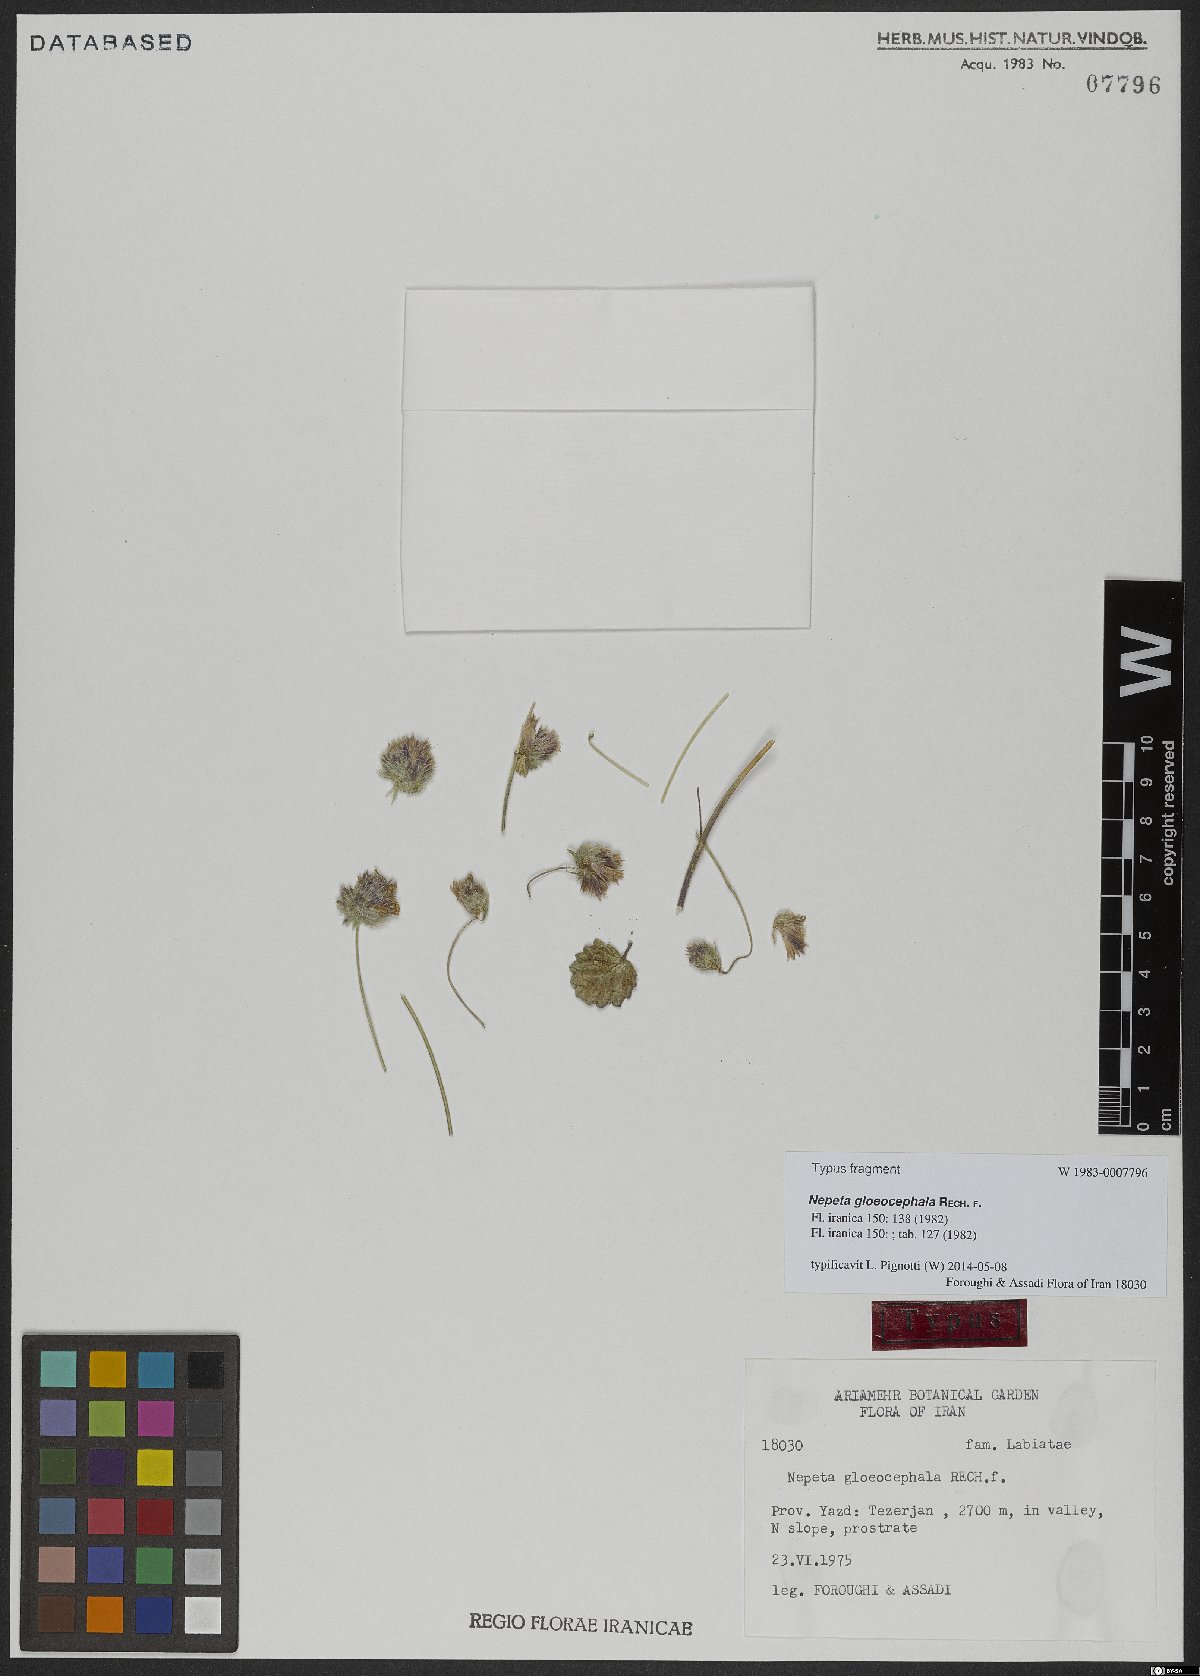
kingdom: Plantae
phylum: Tracheophyta
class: Magnoliopsida
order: Lamiales
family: Lamiaceae
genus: Nepeta
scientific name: Nepeta gloeocephala
